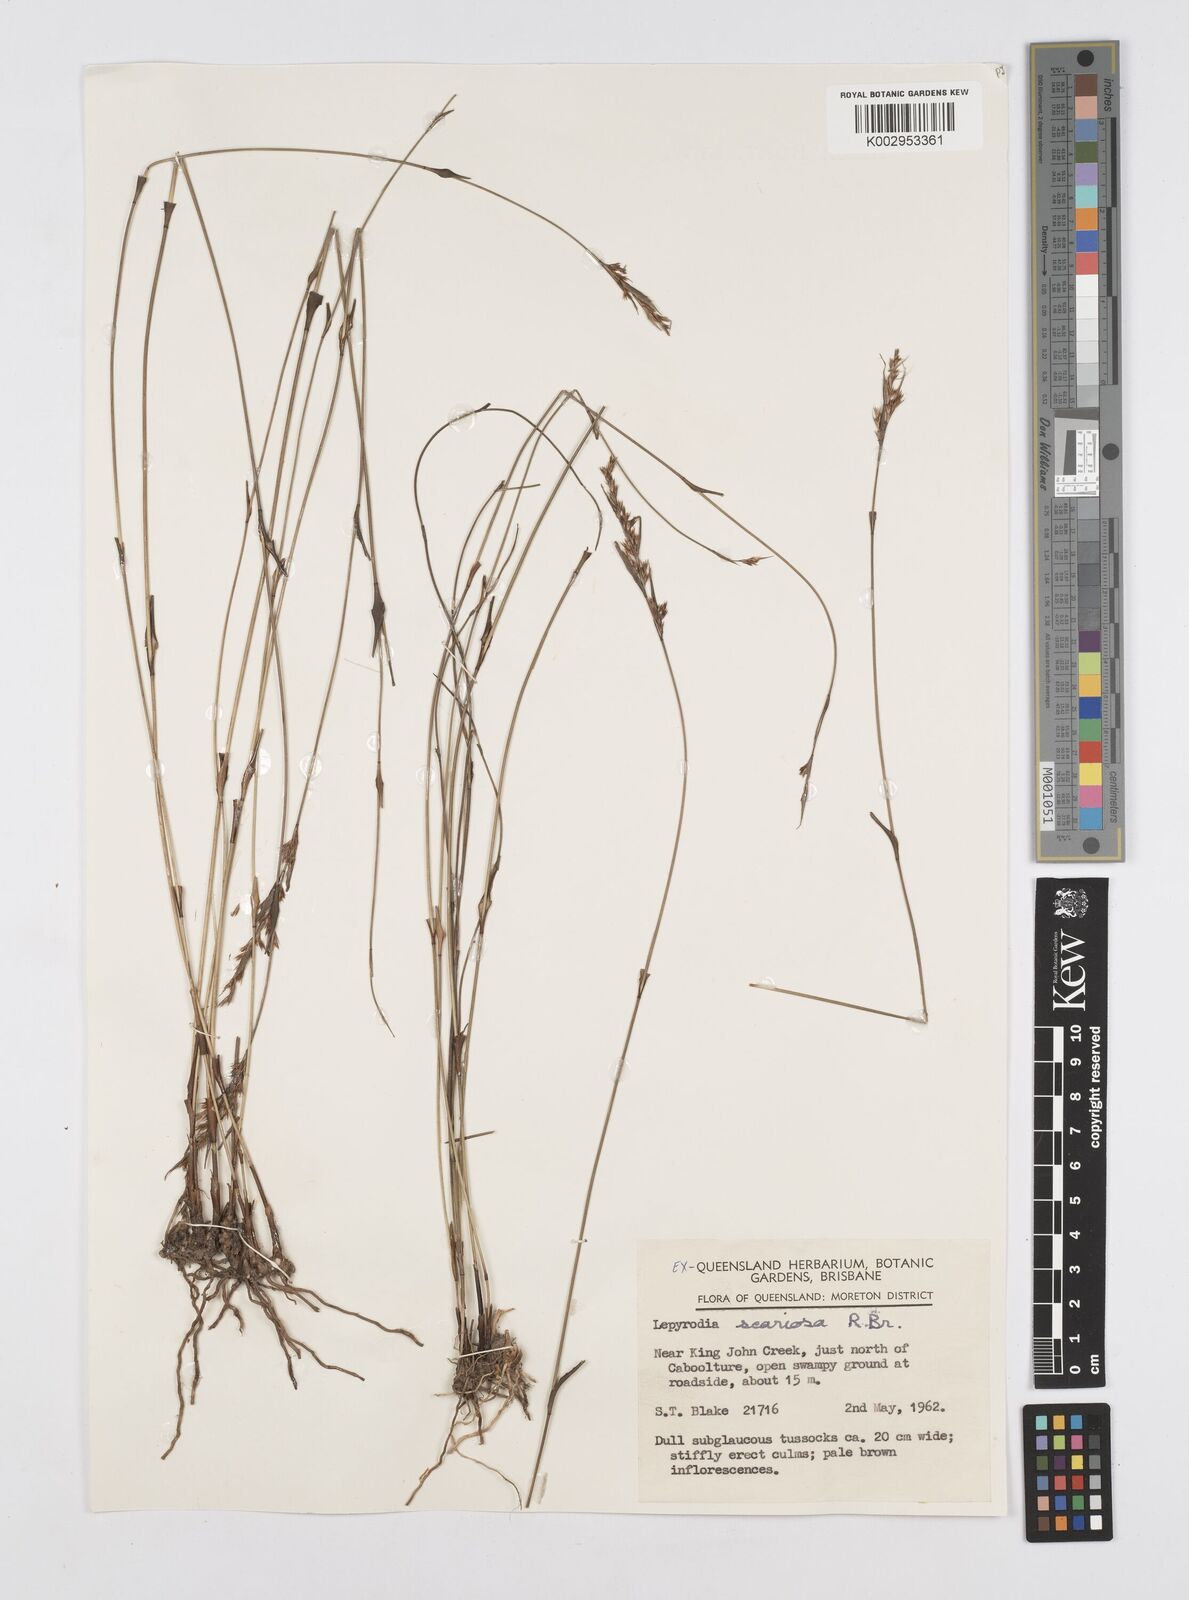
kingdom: Plantae
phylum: Tracheophyta
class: Liliopsida
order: Poales
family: Restionaceae
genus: Lepyrodia
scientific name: Lepyrodia scariosa
